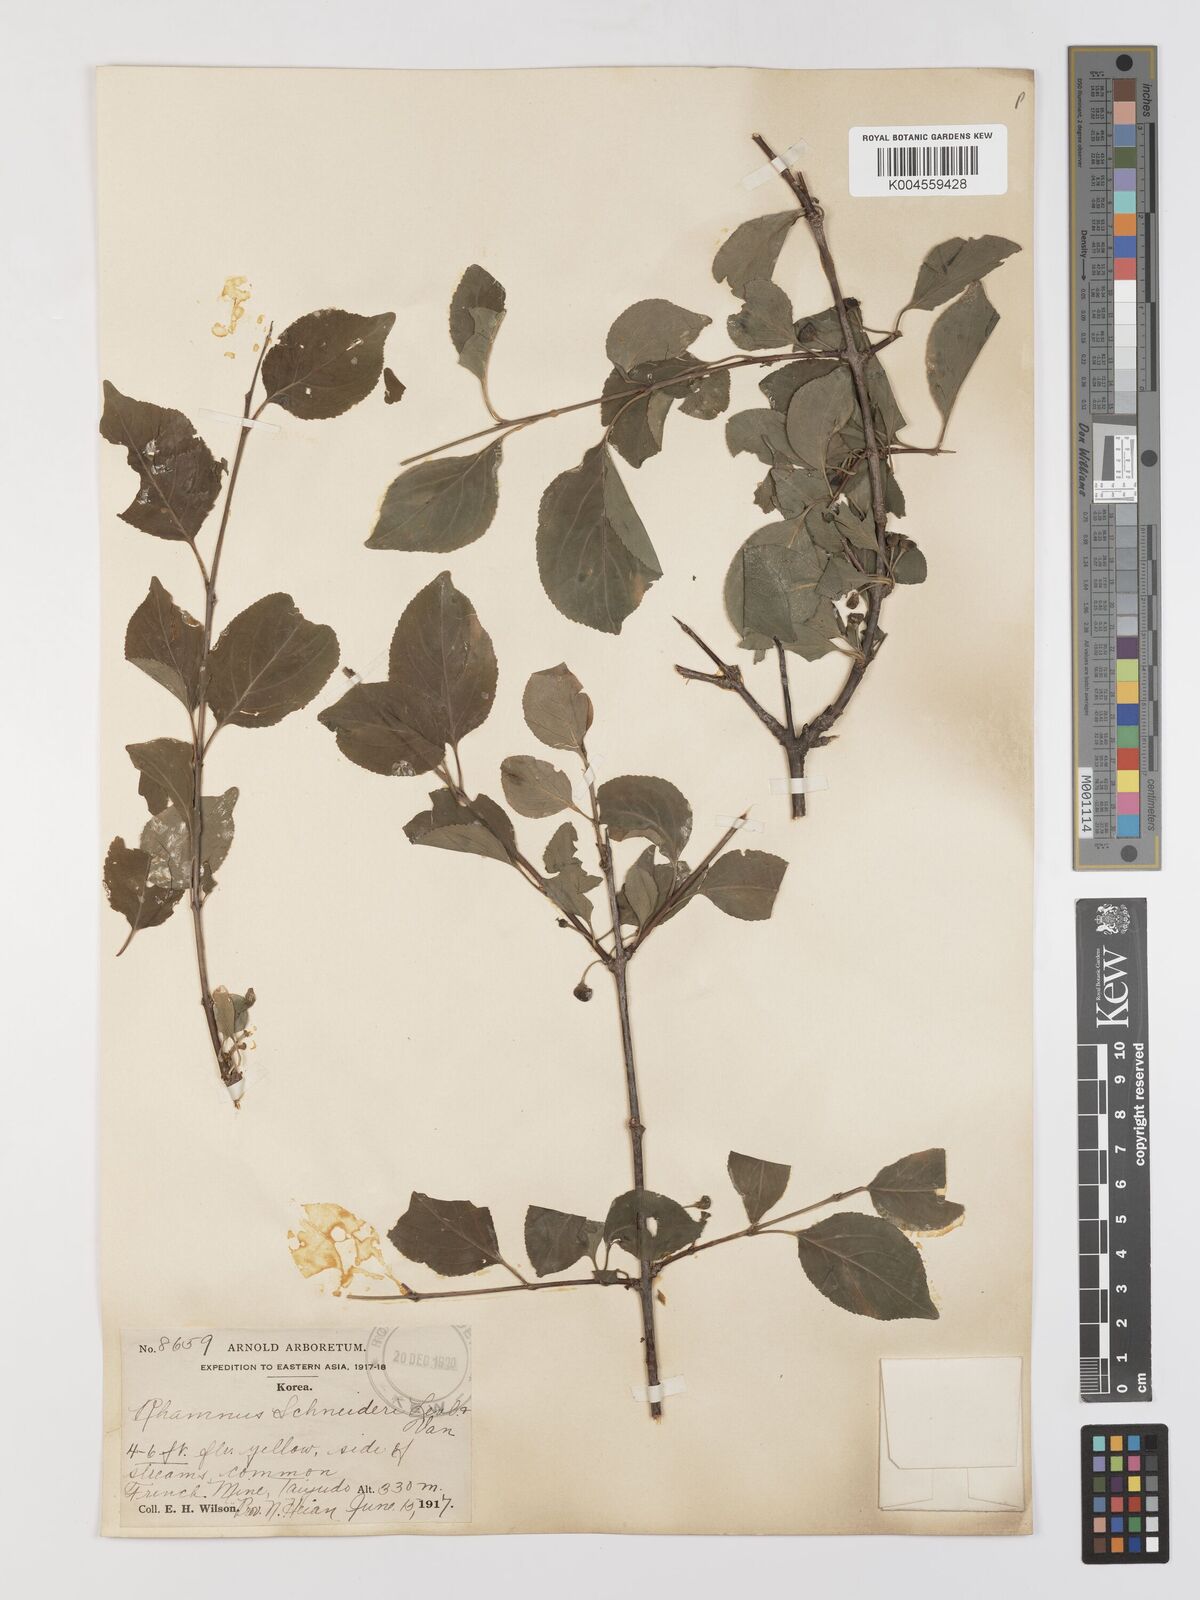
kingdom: Plantae
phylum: Tracheophyta
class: Magnoliopsida
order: Rosales
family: Rhamnaceae
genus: Rhamnus
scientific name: Rhamnus schneideri
